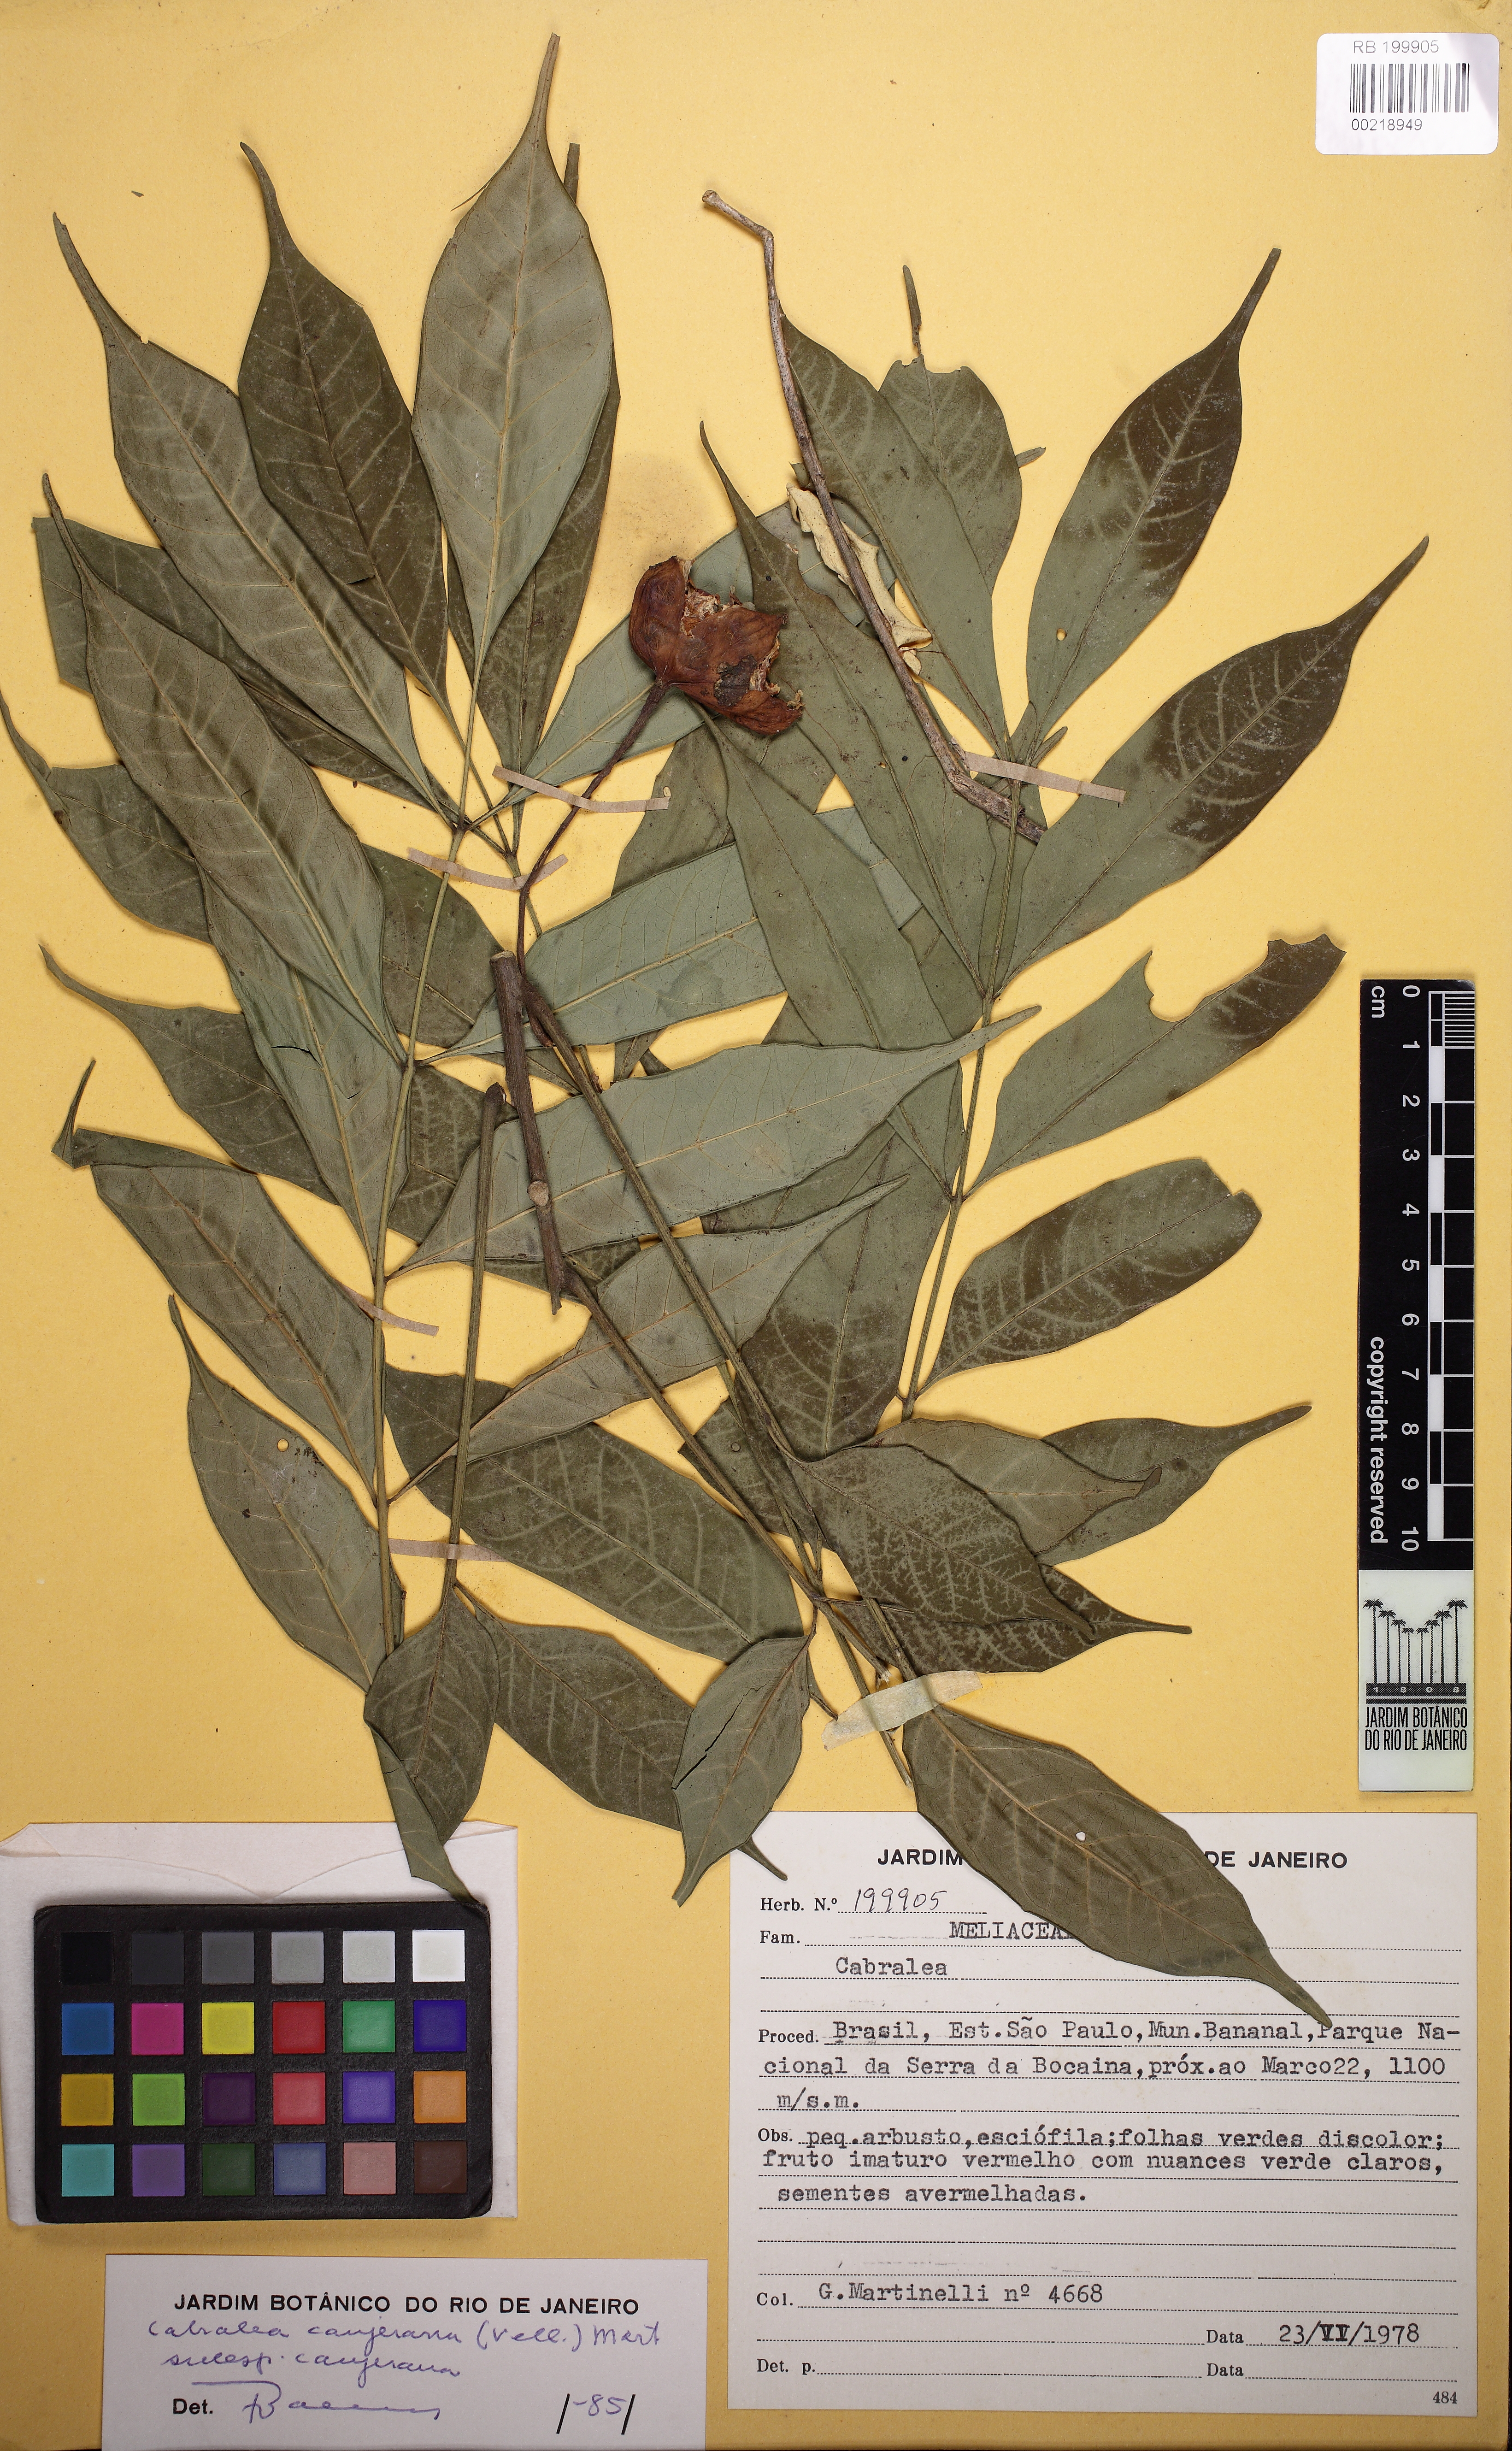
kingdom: Plantae
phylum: Tracheophyta
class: Magnoliopsida
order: Sapindales
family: Meliaceae
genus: Cabralea
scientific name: Cabralea canjerana
